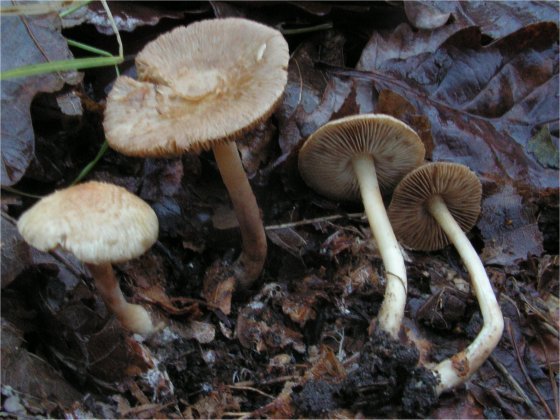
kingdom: Fungi
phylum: Basidiomycota
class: Agaricomycetes
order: Agaricales
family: Inocybaceae
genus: Inocybe
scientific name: Inocybe sindonia
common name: bleg trævlhat
